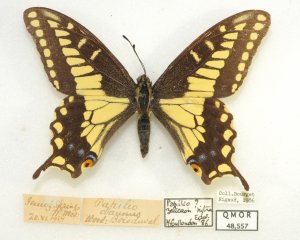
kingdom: Animalia
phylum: Arthropoda
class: Insecta
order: Lepidoptera
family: Papilionidae
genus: Papilio
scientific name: Papilio zelicaon
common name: Anise Swallowtail
